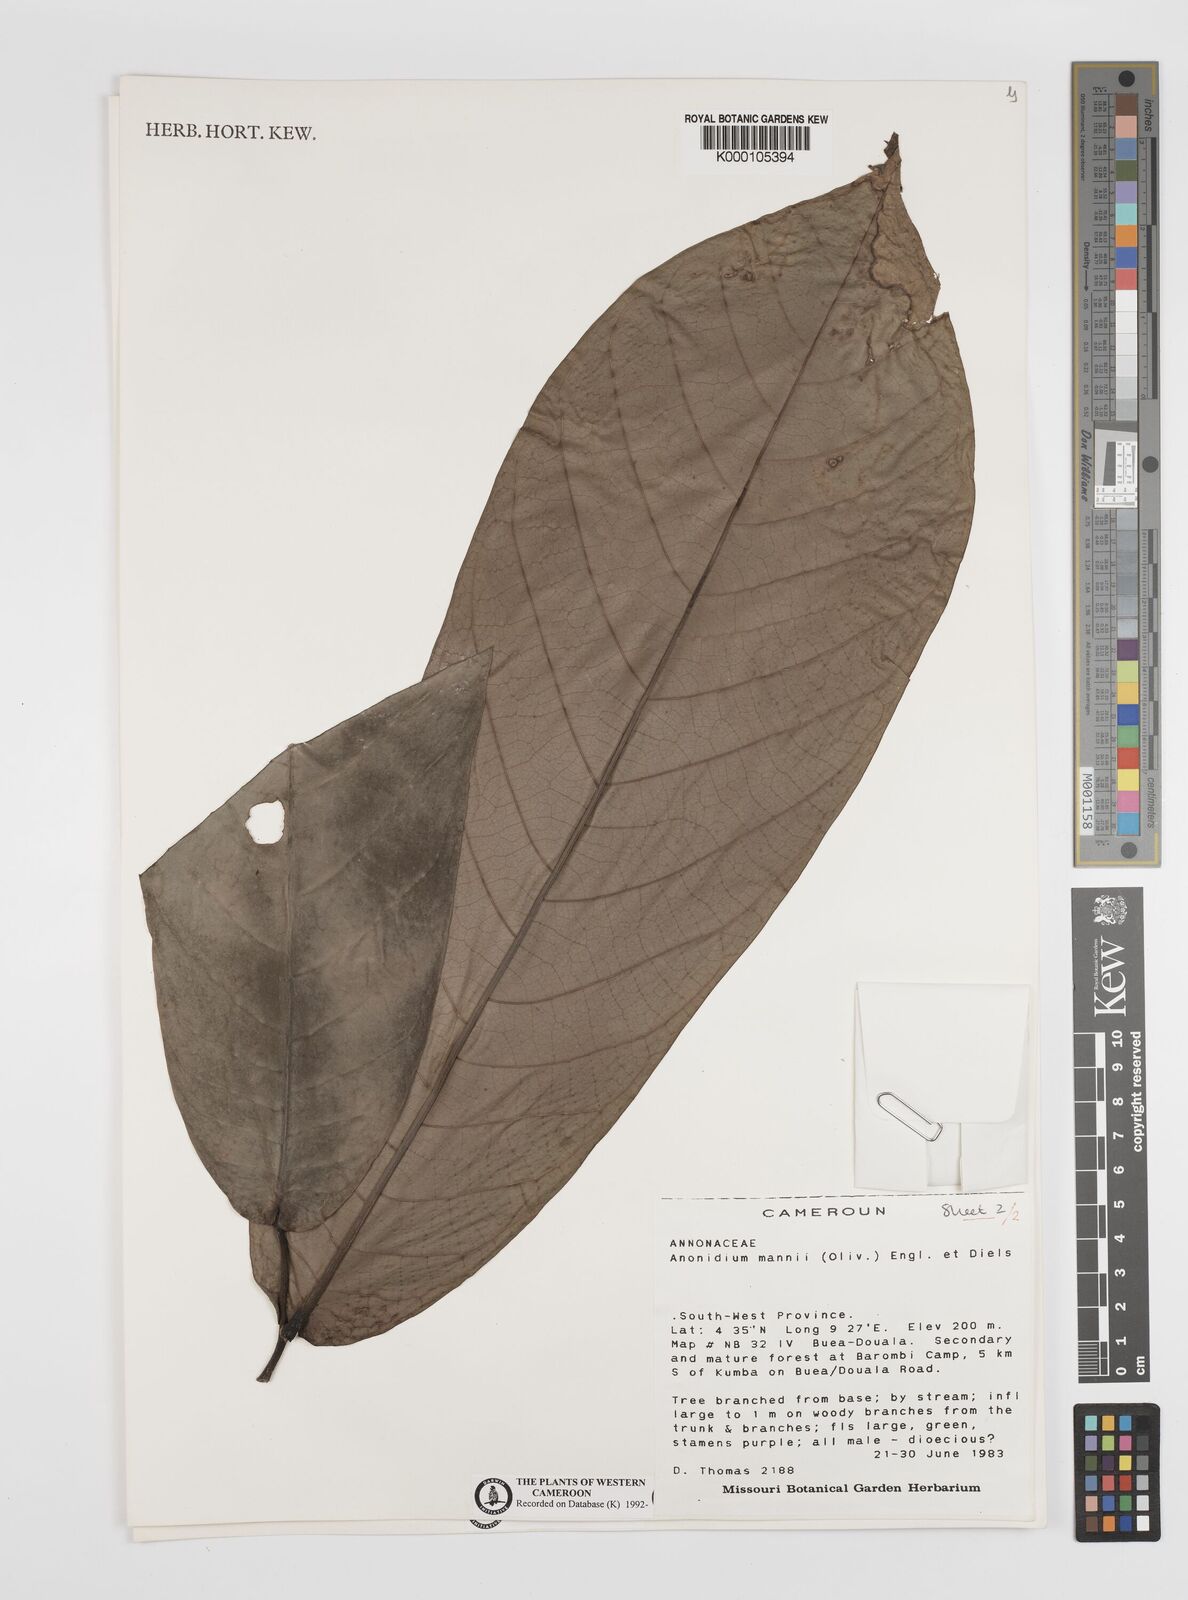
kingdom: Plantae
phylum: Tracheophyta
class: Magnoliopsida
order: Magnoliales
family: Annonaceae
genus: Anonidium
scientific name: Anonidium mannii
